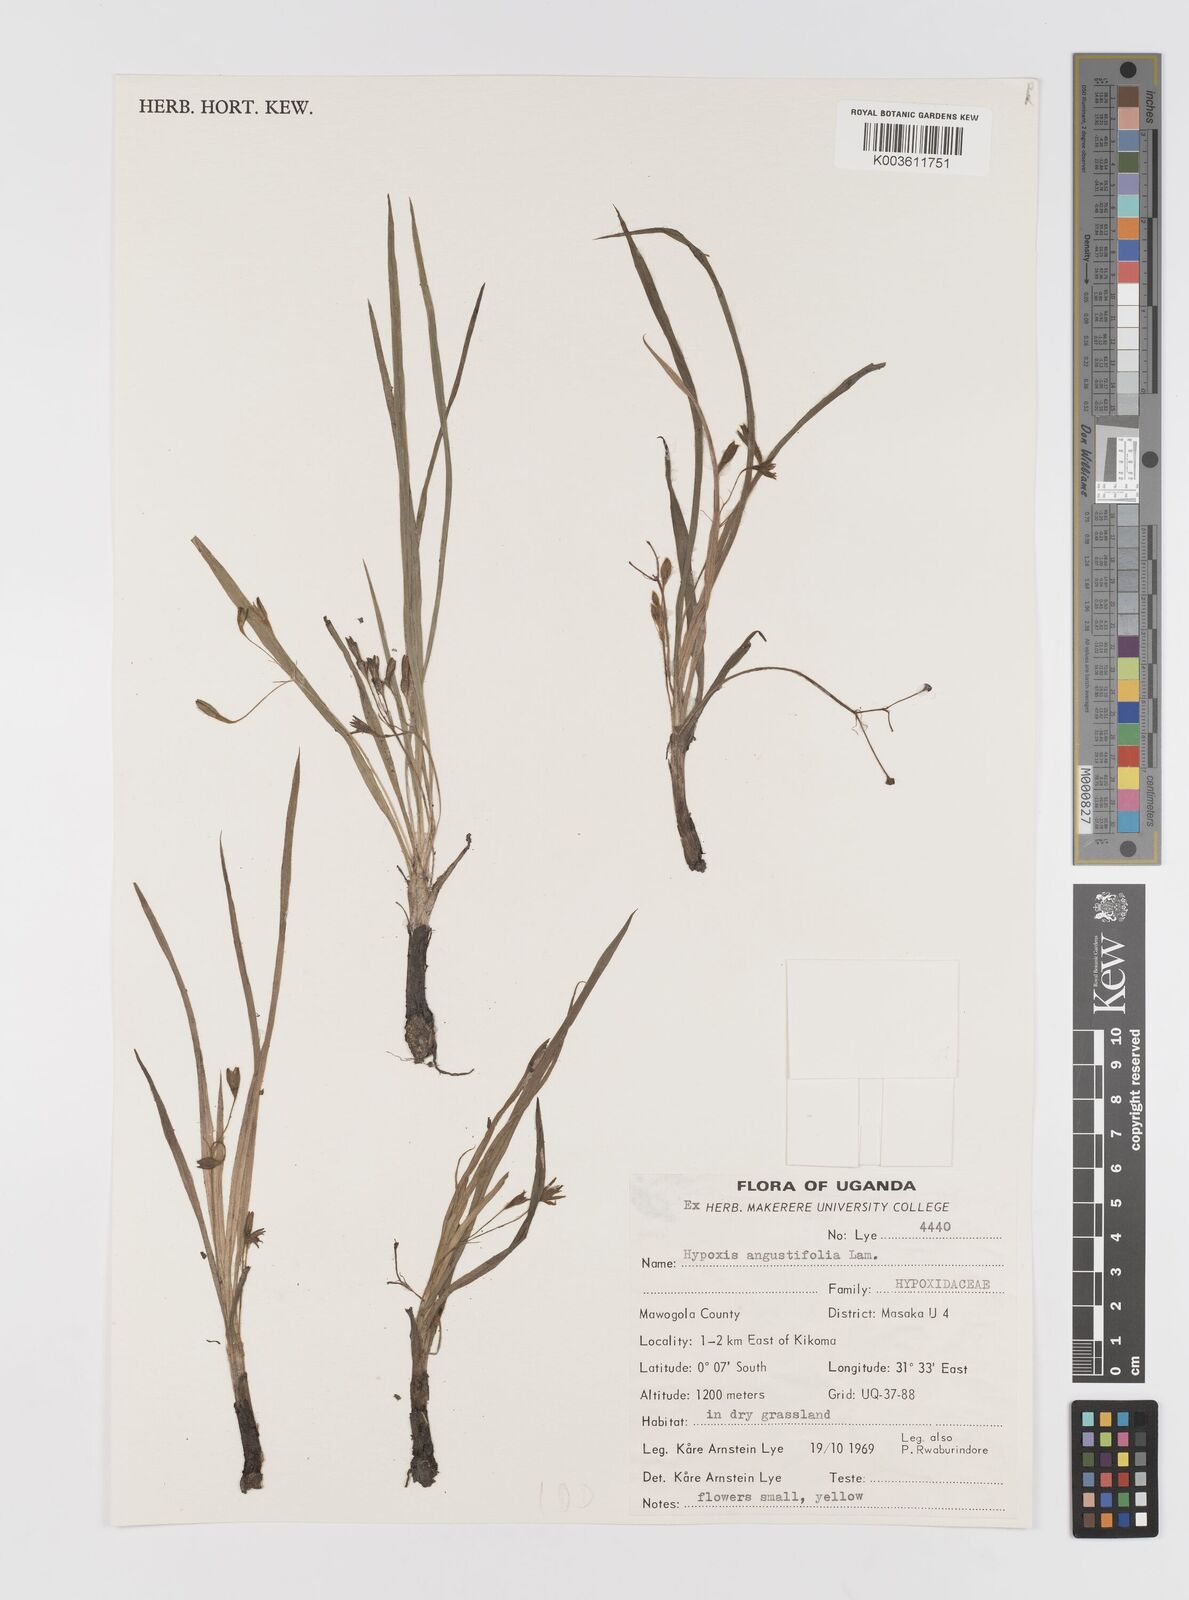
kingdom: Plantae
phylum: Tracheophyta
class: Liliopsida
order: Asparagales
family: Hypoxidaceae
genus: Hypoxis
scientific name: Hypoxis angustifolia
